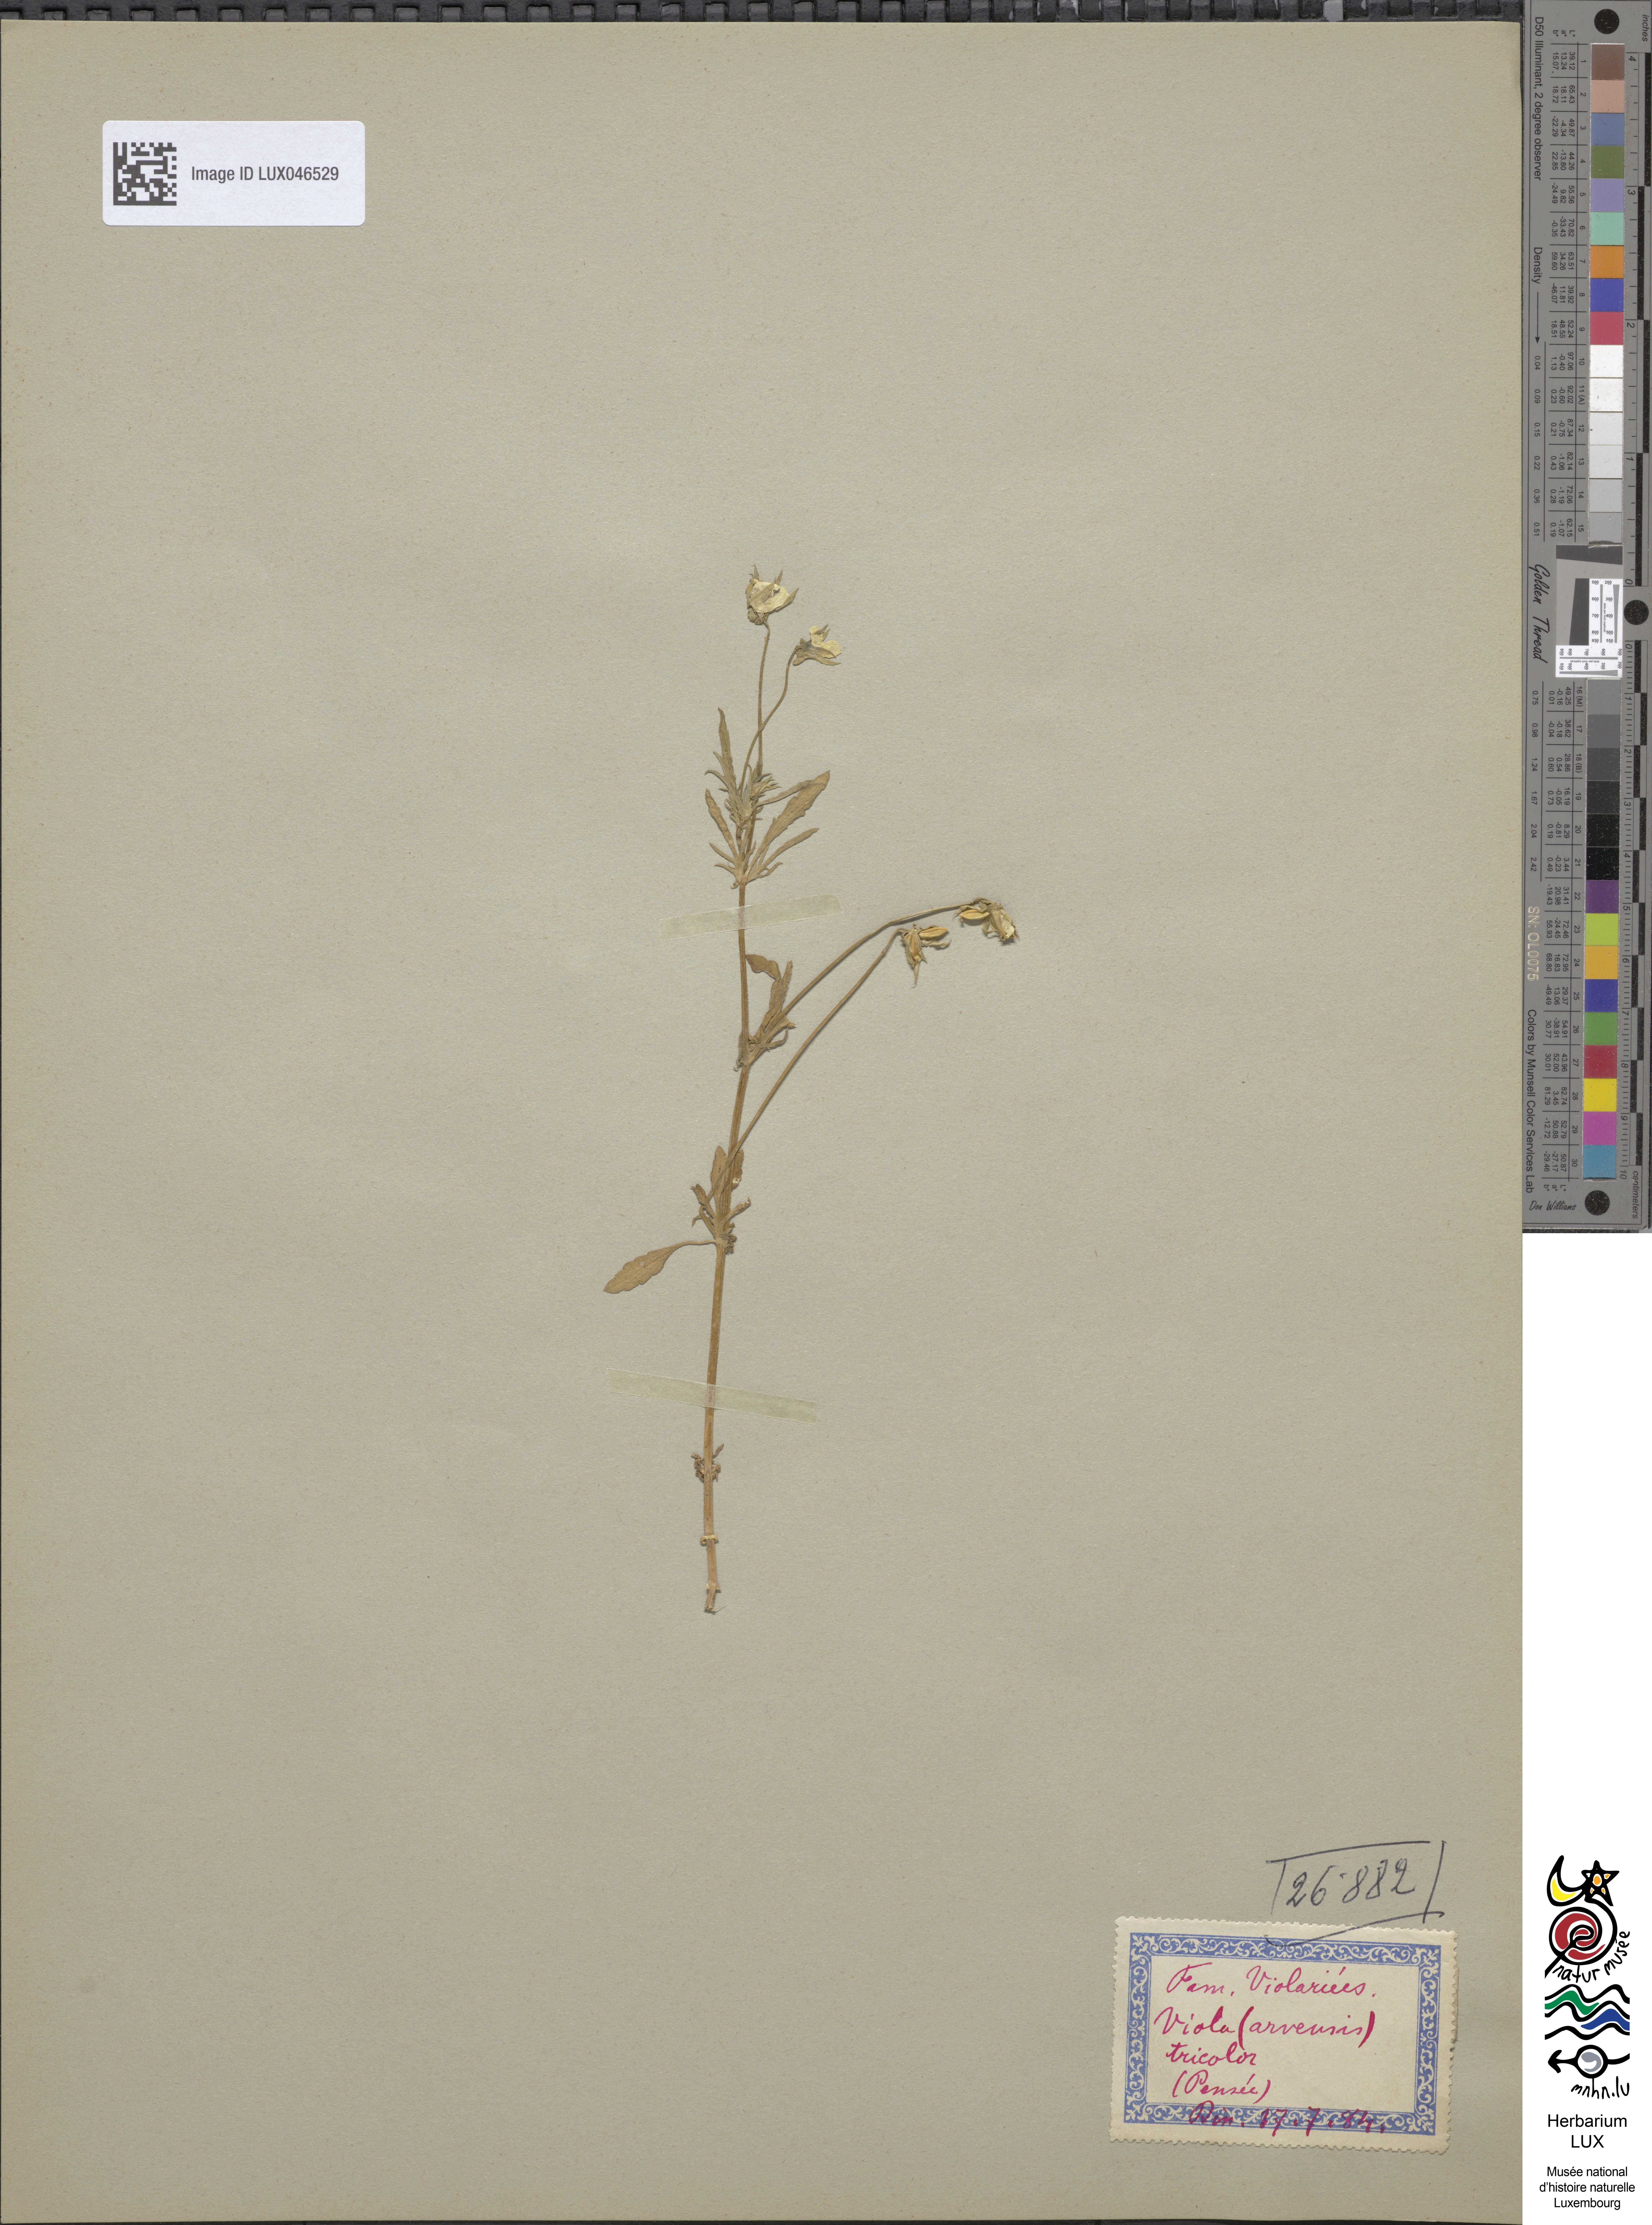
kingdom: Plantae
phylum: Tracheophyta
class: Magnoliopsida
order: Malpighiales
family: Violaceae
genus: Viola
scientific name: Viola tricolor
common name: Pansy
